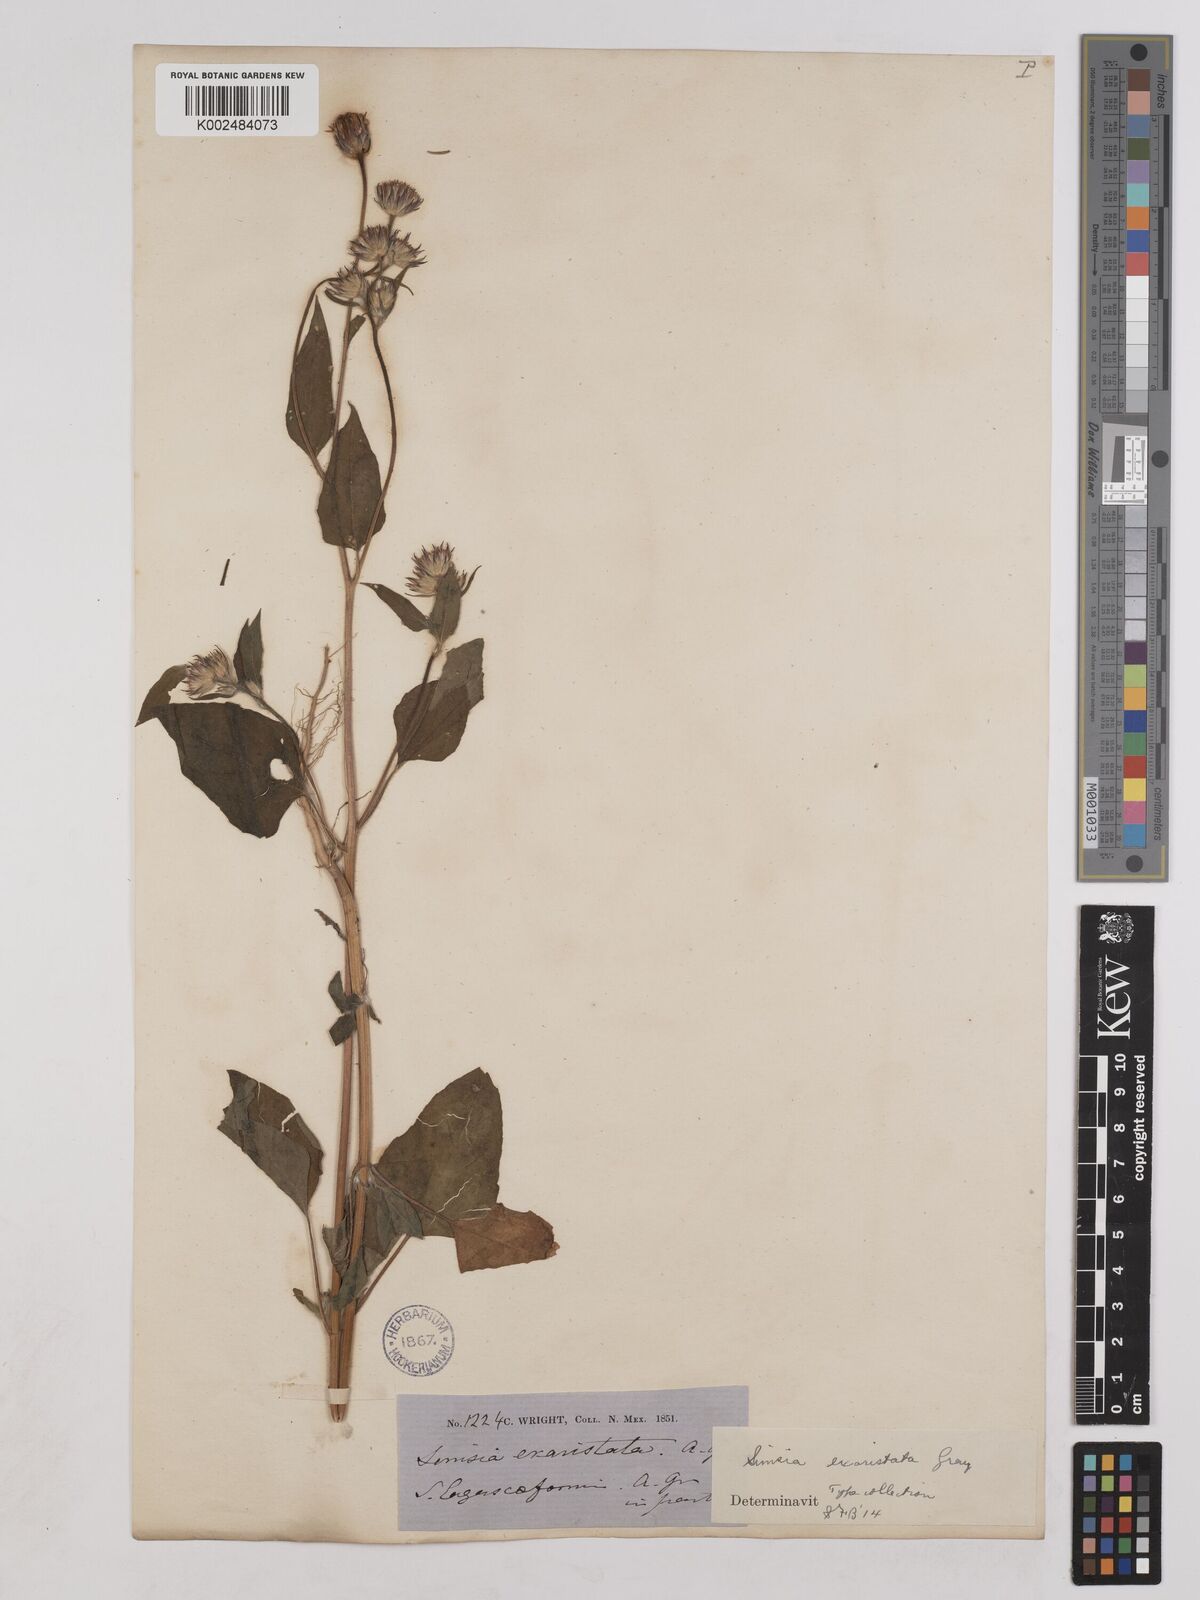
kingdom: Plantae
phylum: Tracheophyta
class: Magnoliopsida
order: Asterales
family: Asteraceae
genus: Simsia
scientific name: Simsia lagasceiformis
